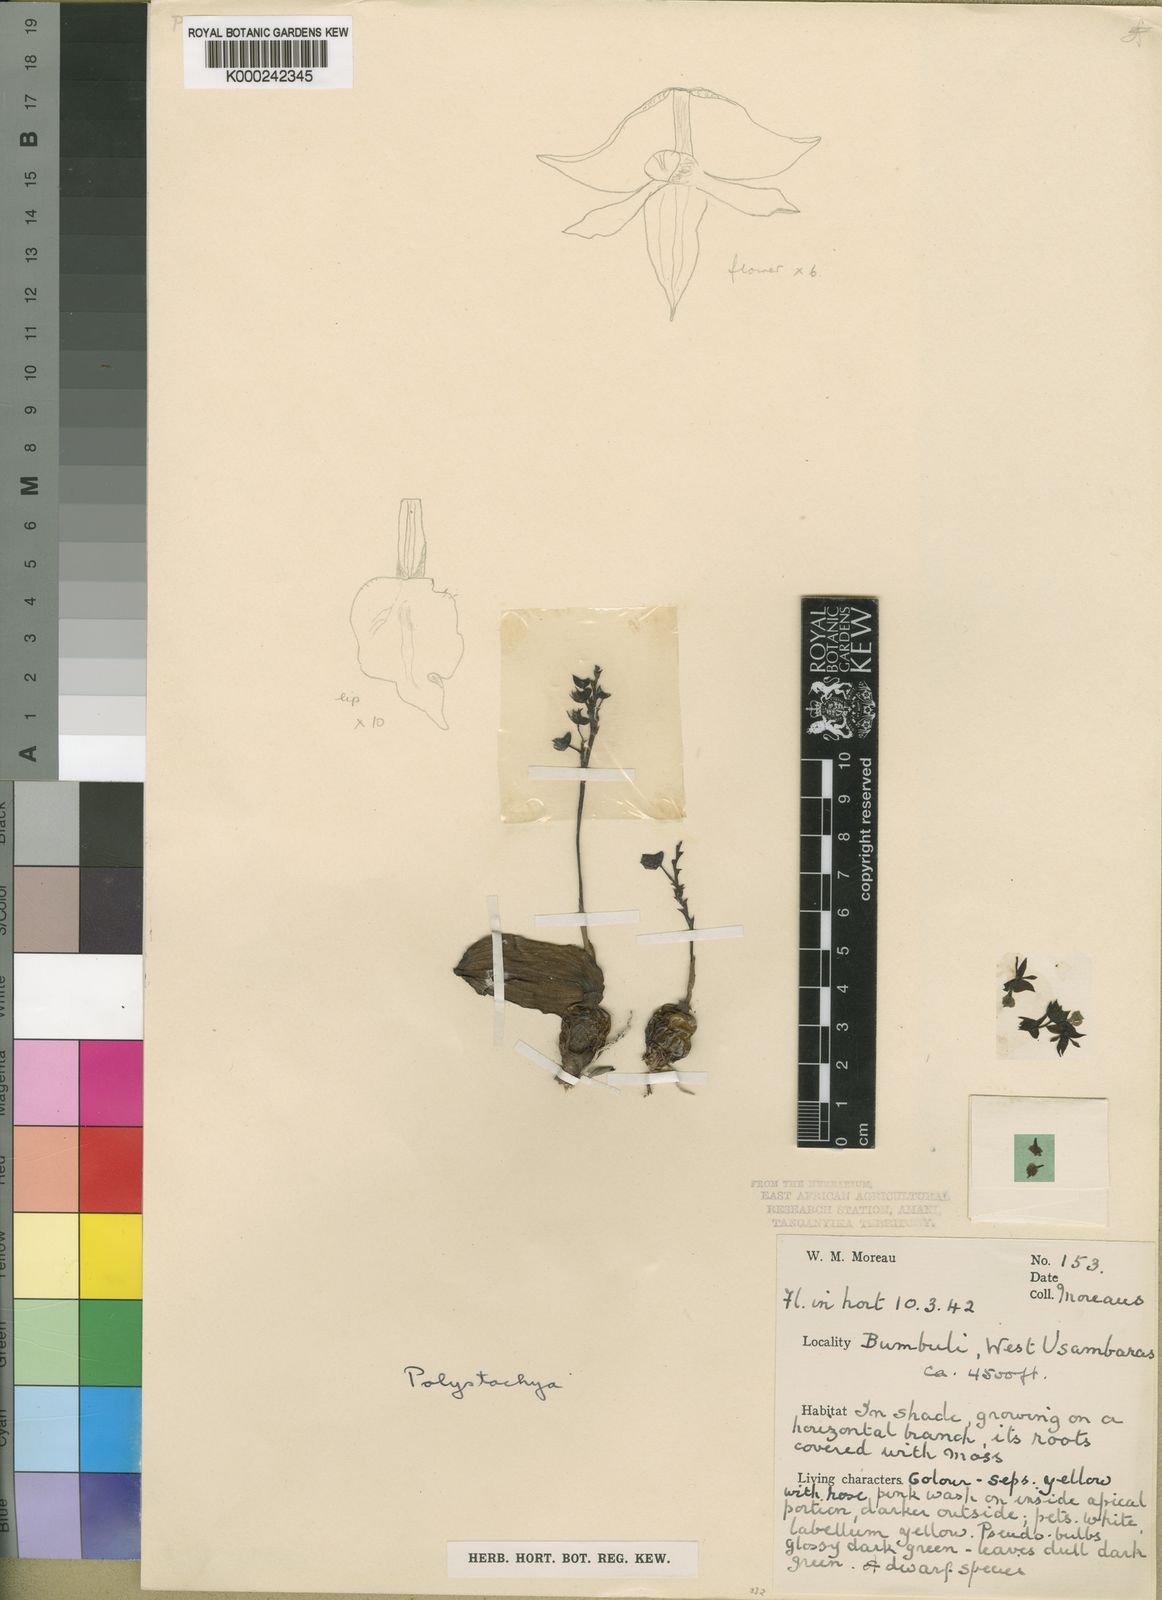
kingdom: Plantae
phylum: Tracheophyta
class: Liliopsida
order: Asparagales
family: Orchidaceae
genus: Polystachya
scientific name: Polystachya mazumbaiensis
